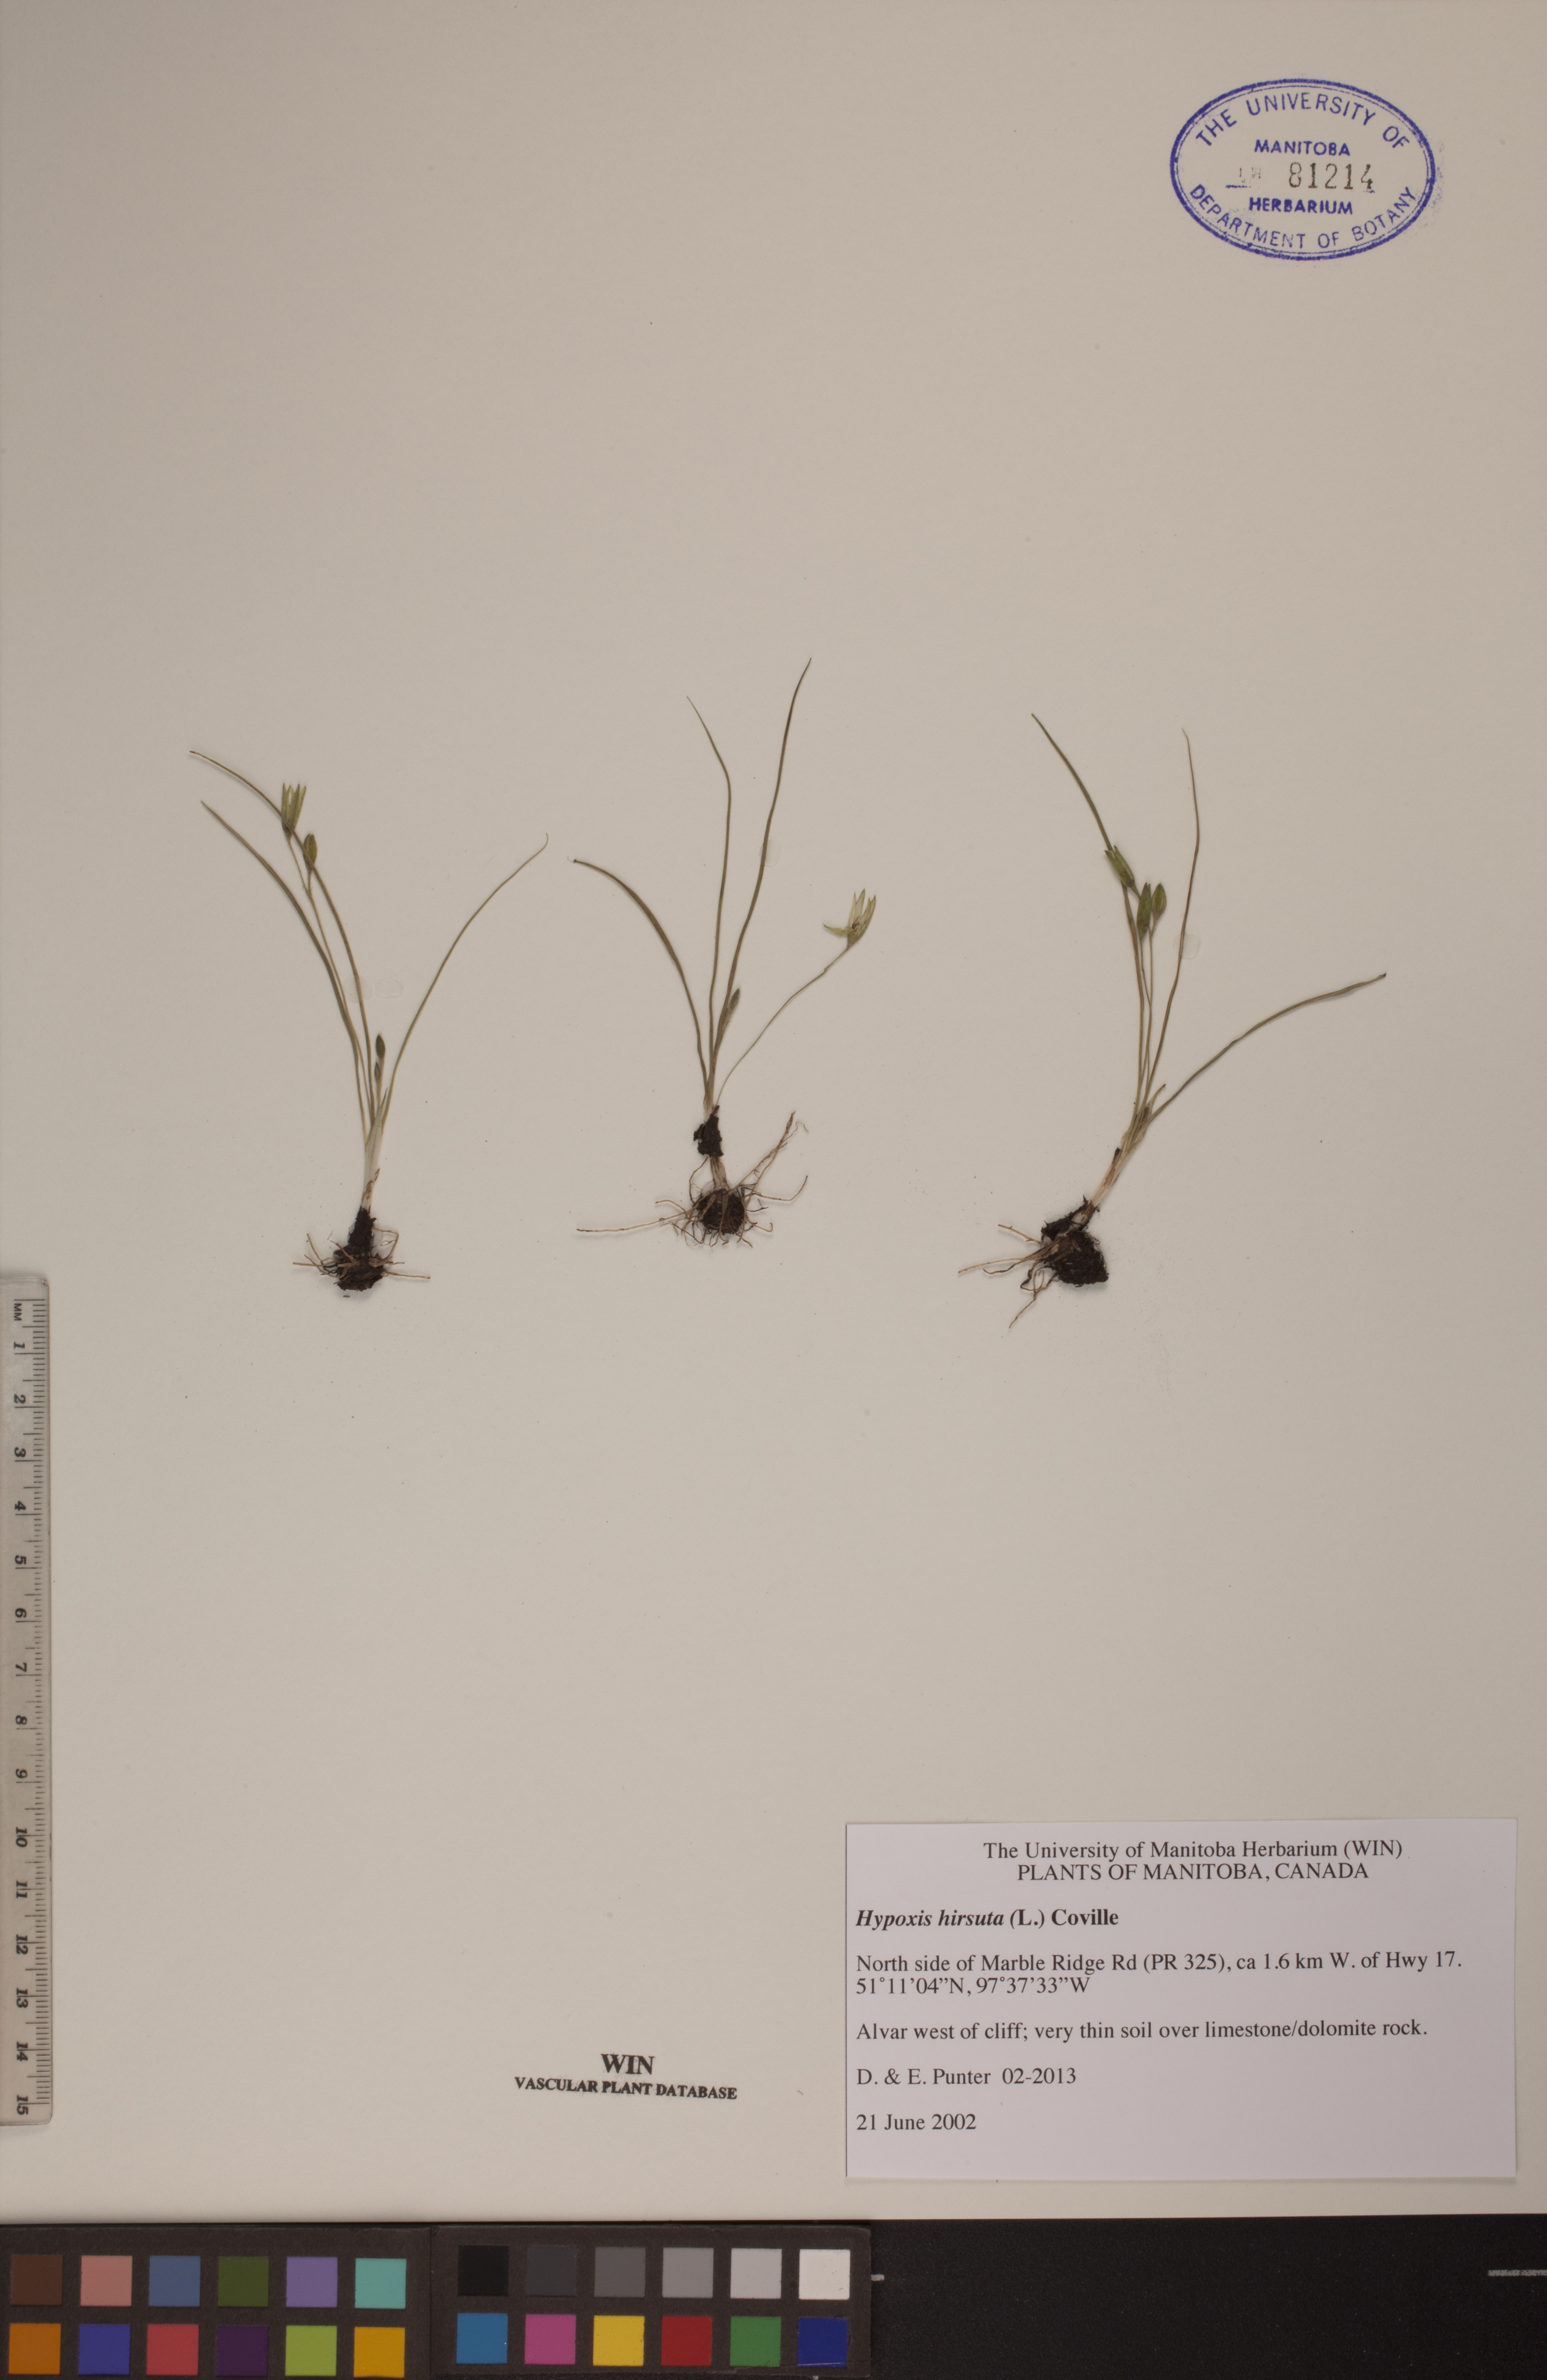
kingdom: Plantae
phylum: Tracheophyta
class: Liliopsida
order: Asparagales
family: Hypoxidaceae
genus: Hypoxis
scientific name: Hypoxis hirsuta
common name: Common goldstar
